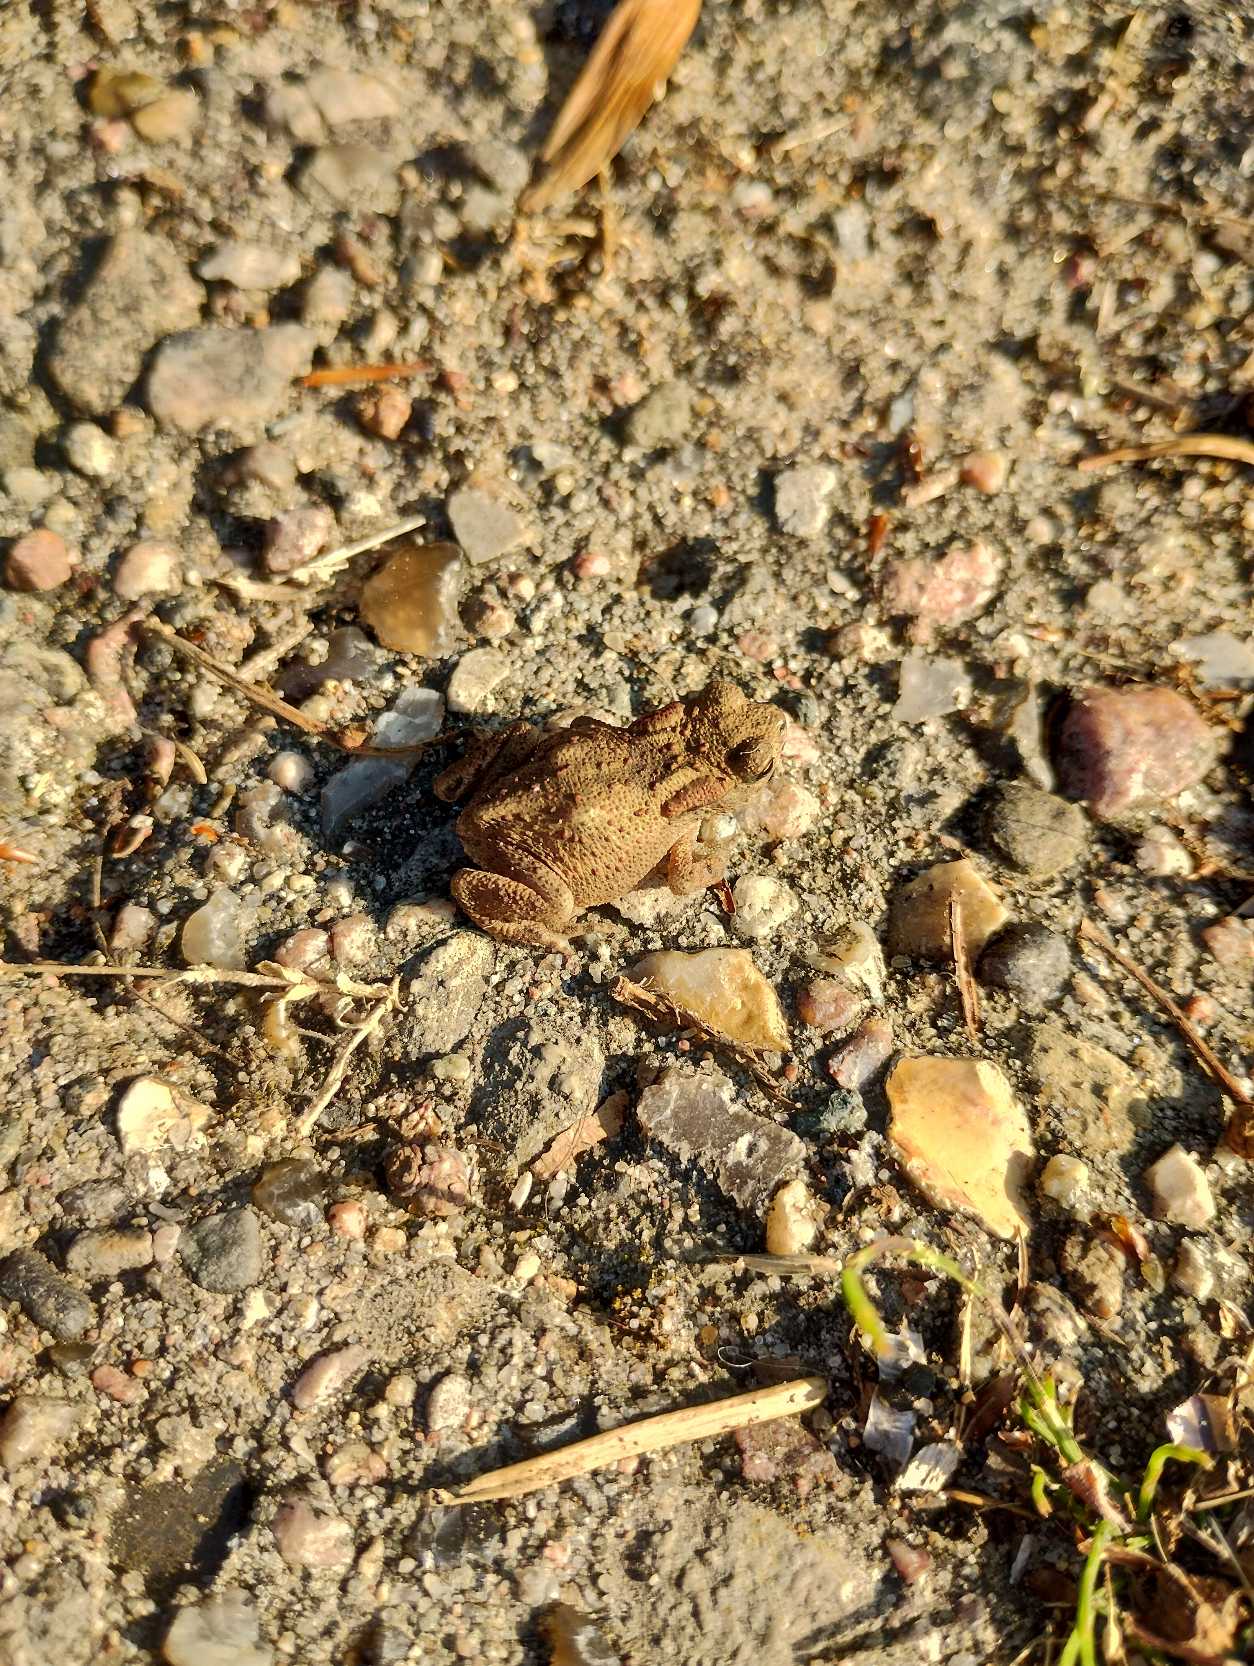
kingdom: Animalia
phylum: Chordata
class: Amphibia
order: Anura
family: Bufonidae
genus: Bufo
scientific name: Bufo bufo
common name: Skrubtudse
